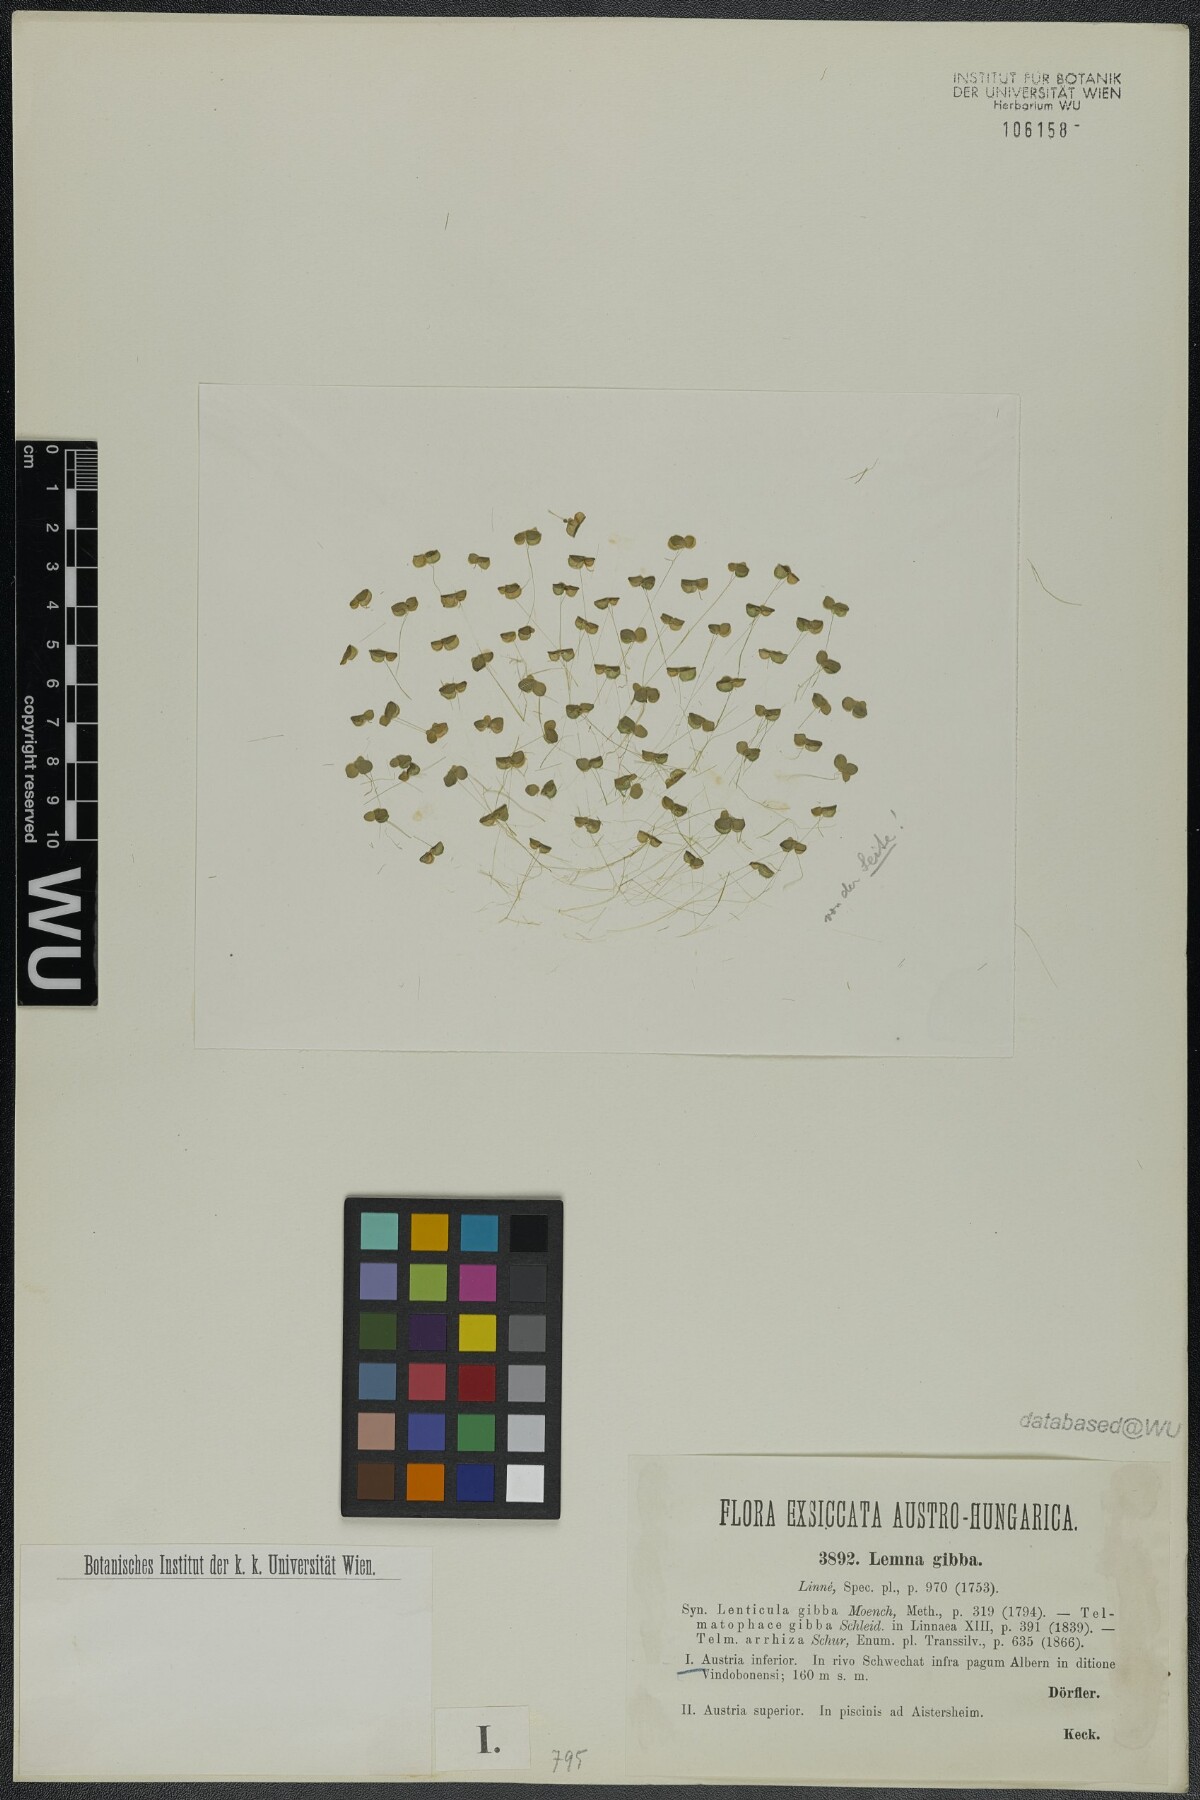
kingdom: Plantae
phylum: Tracheophyta
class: Liliopsida
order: Alismatales
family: Araceae
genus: Lemna
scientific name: Lemna gibba
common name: Fat duckweed
